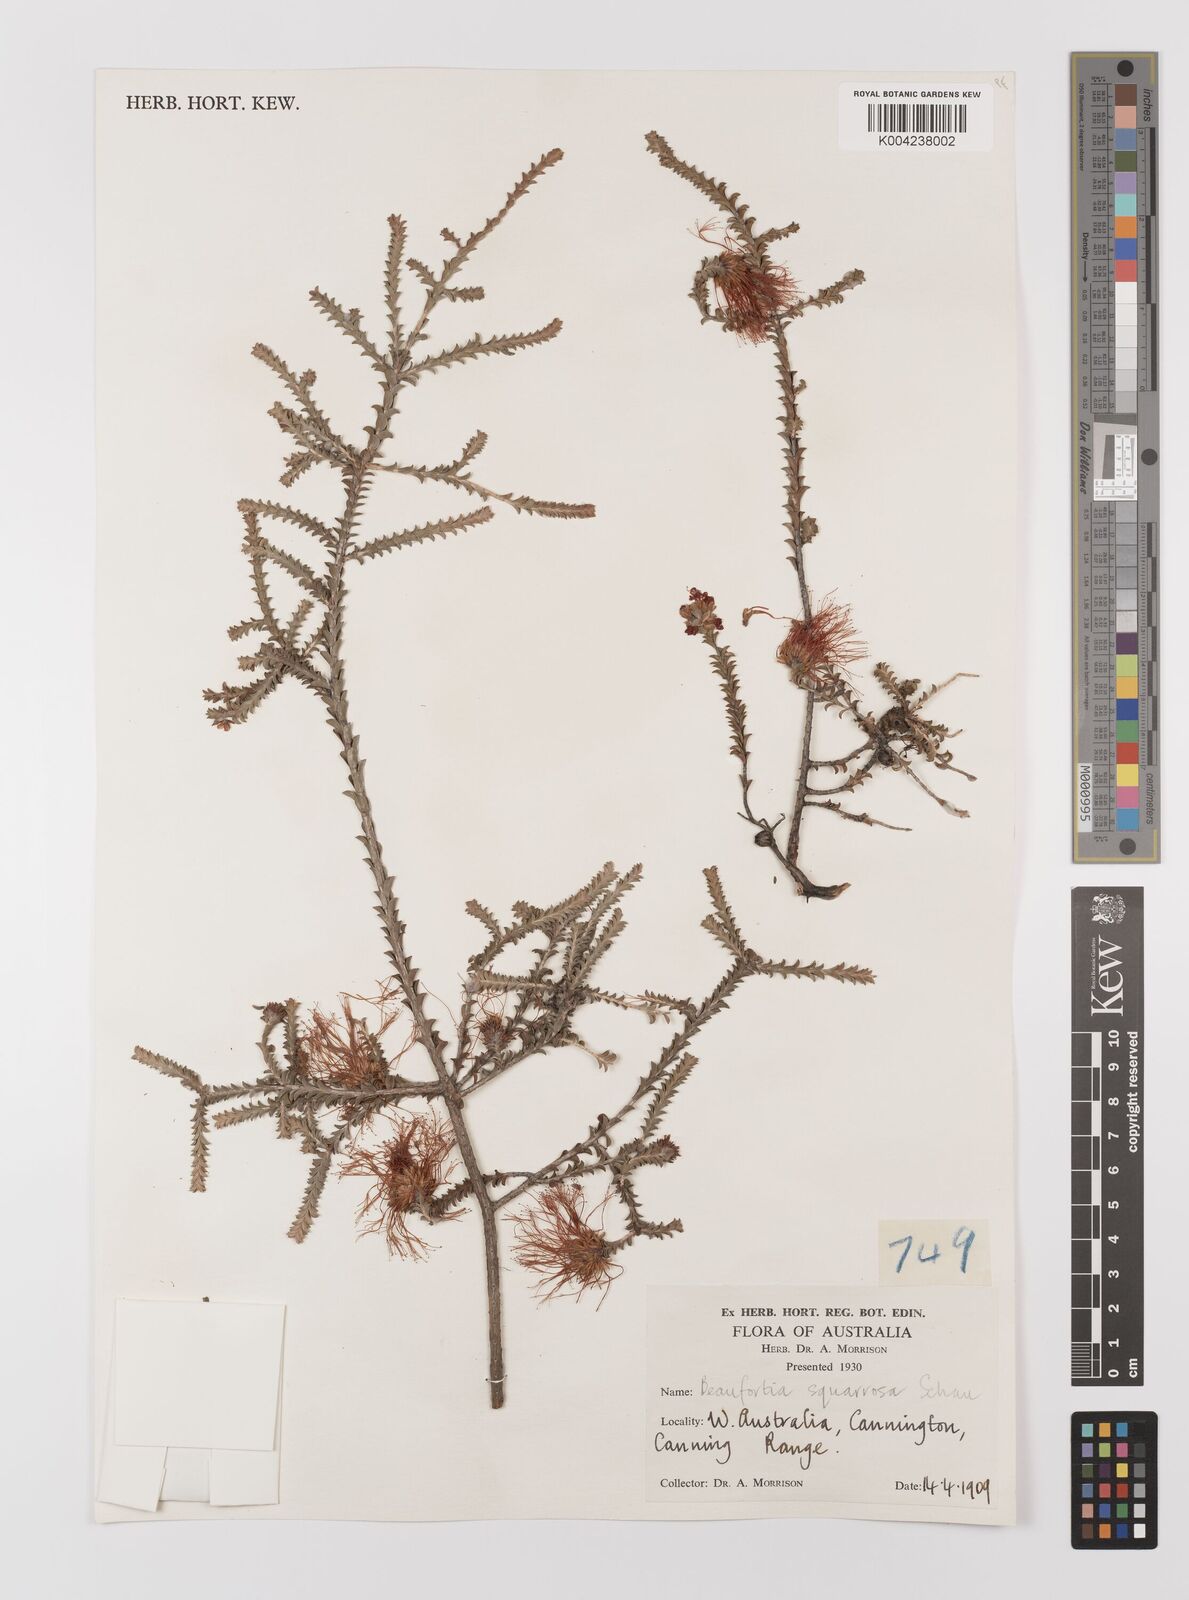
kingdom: Plantae
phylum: Tracheophyta
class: Magnoliopsida
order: Myrtales
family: Myrtaceae
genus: Melaleuca
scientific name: Melaleuca pulcherrima
